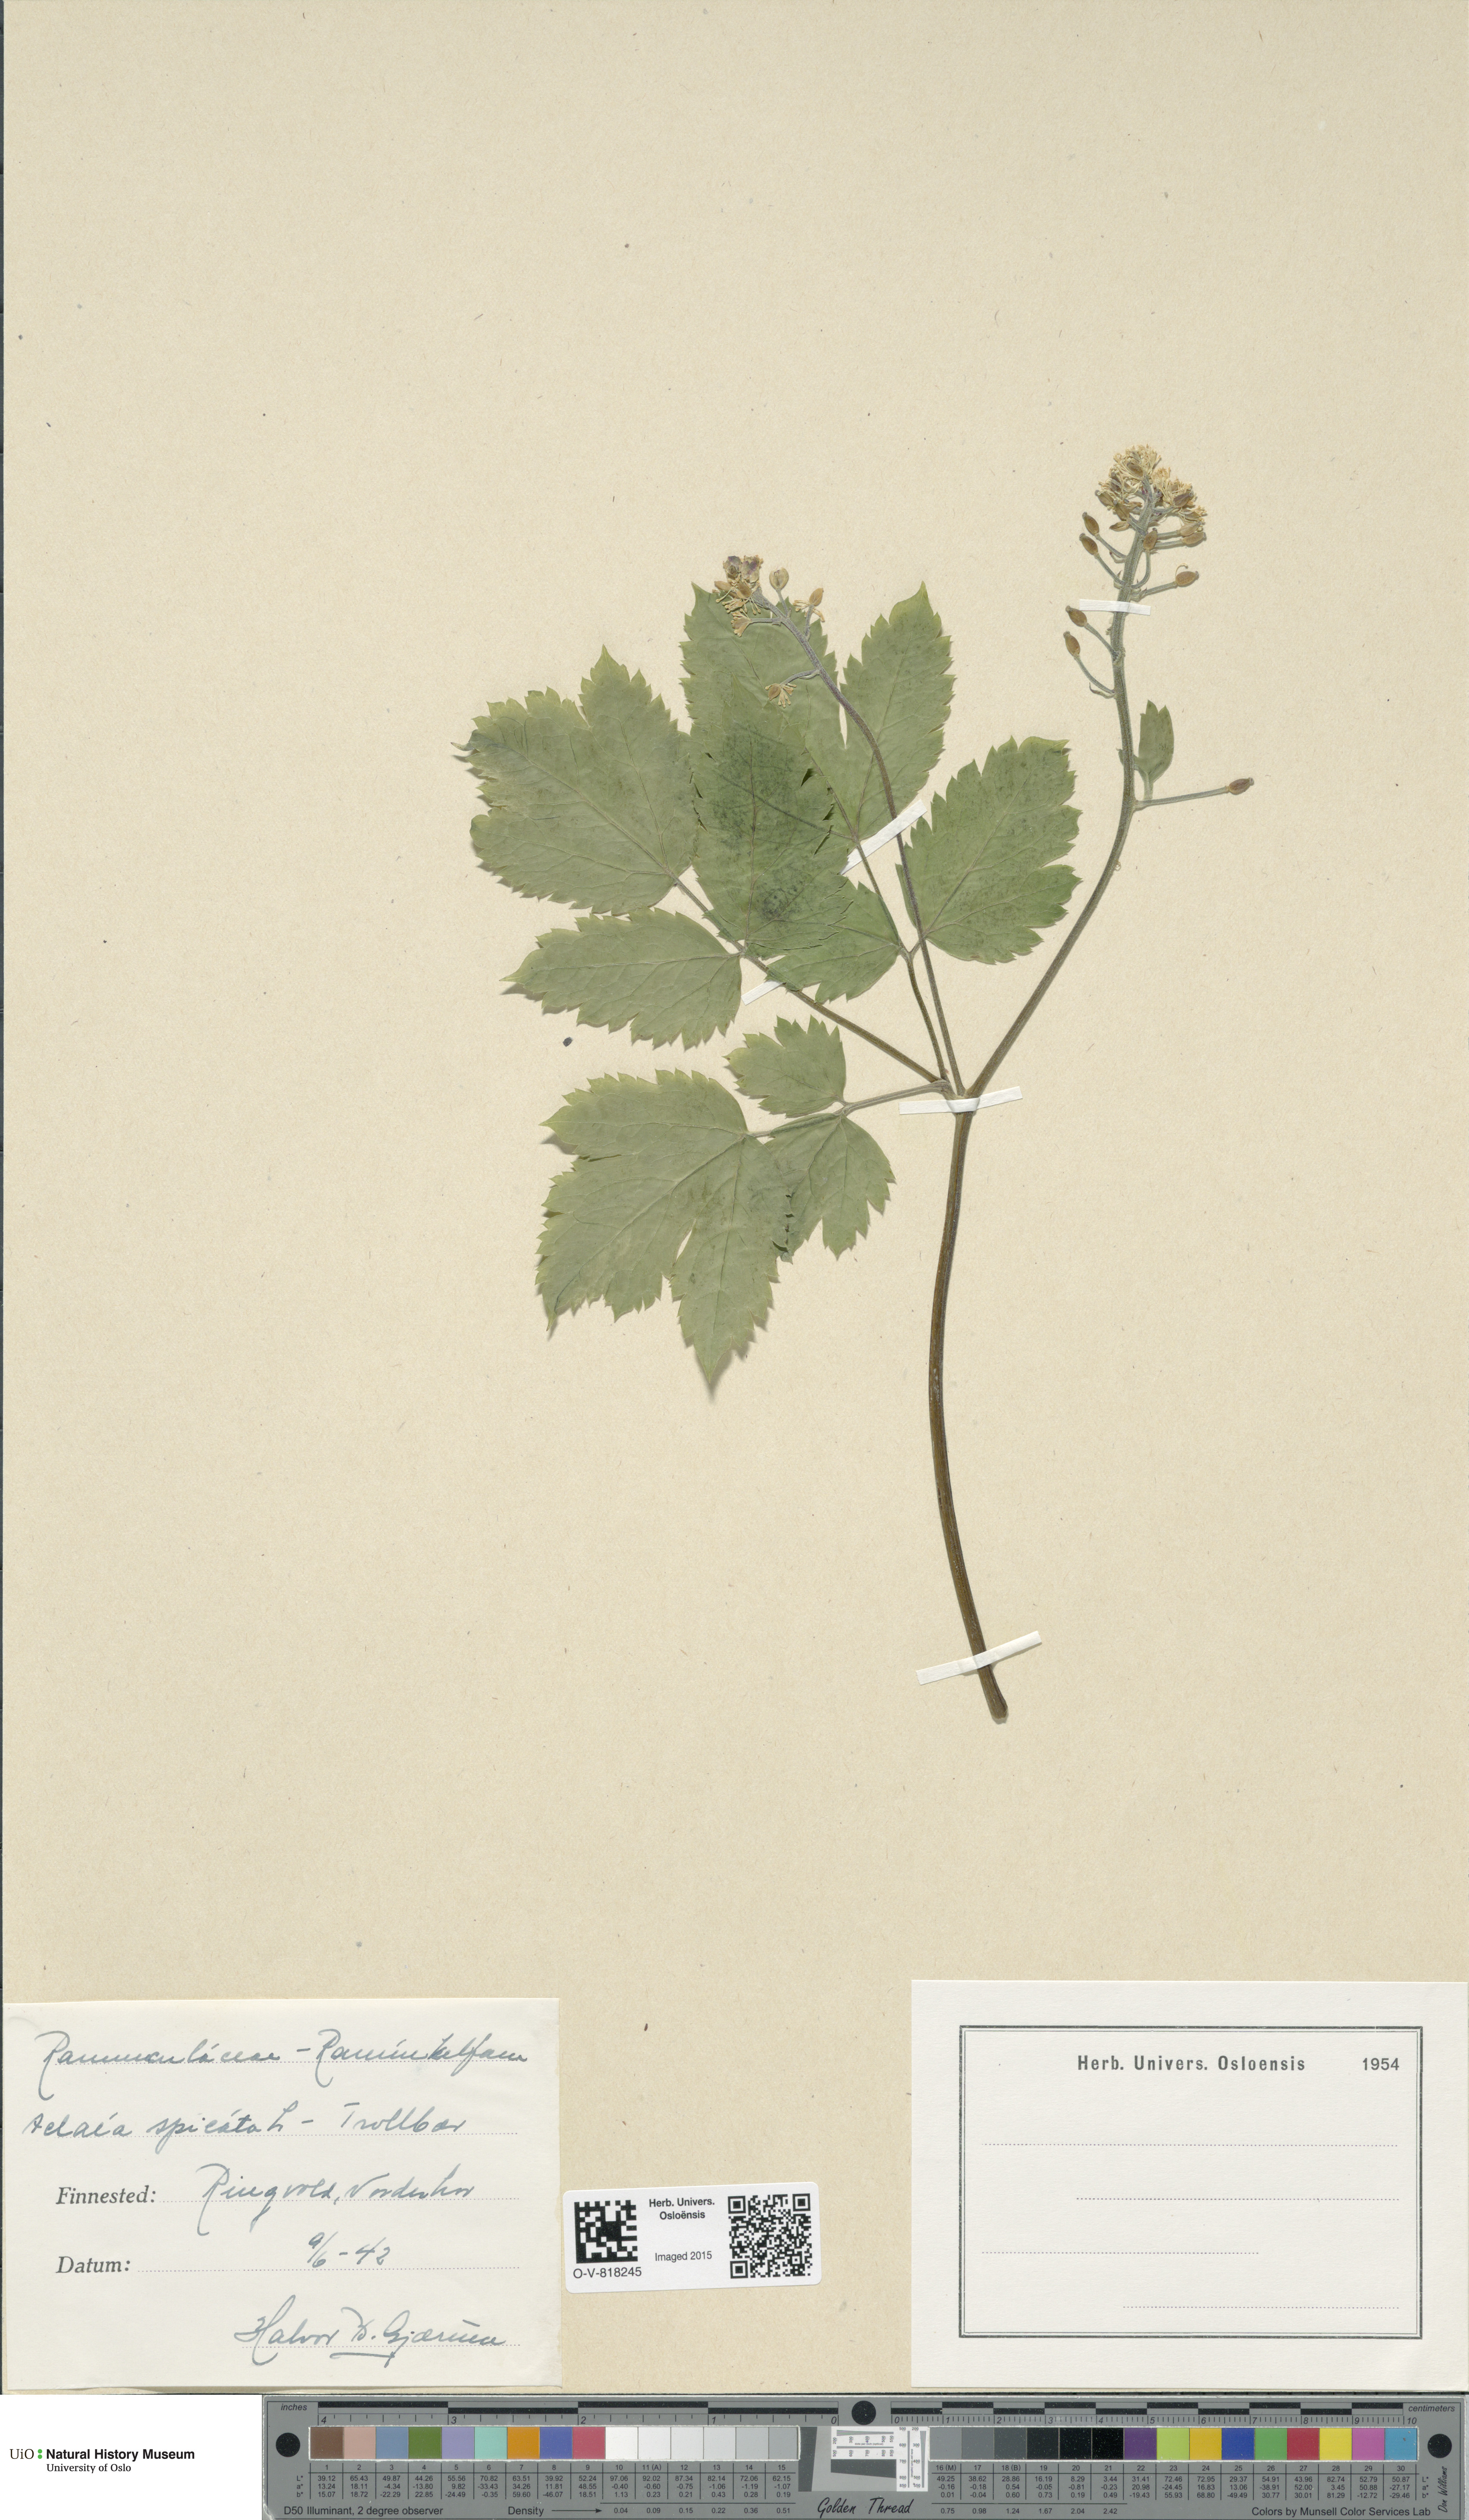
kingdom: Plantae
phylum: Tracheophyta
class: Magnoliopsida
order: Ranunculales
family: Ranunculaceae
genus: Actaea
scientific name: Actaea spicata
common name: Baneberry
